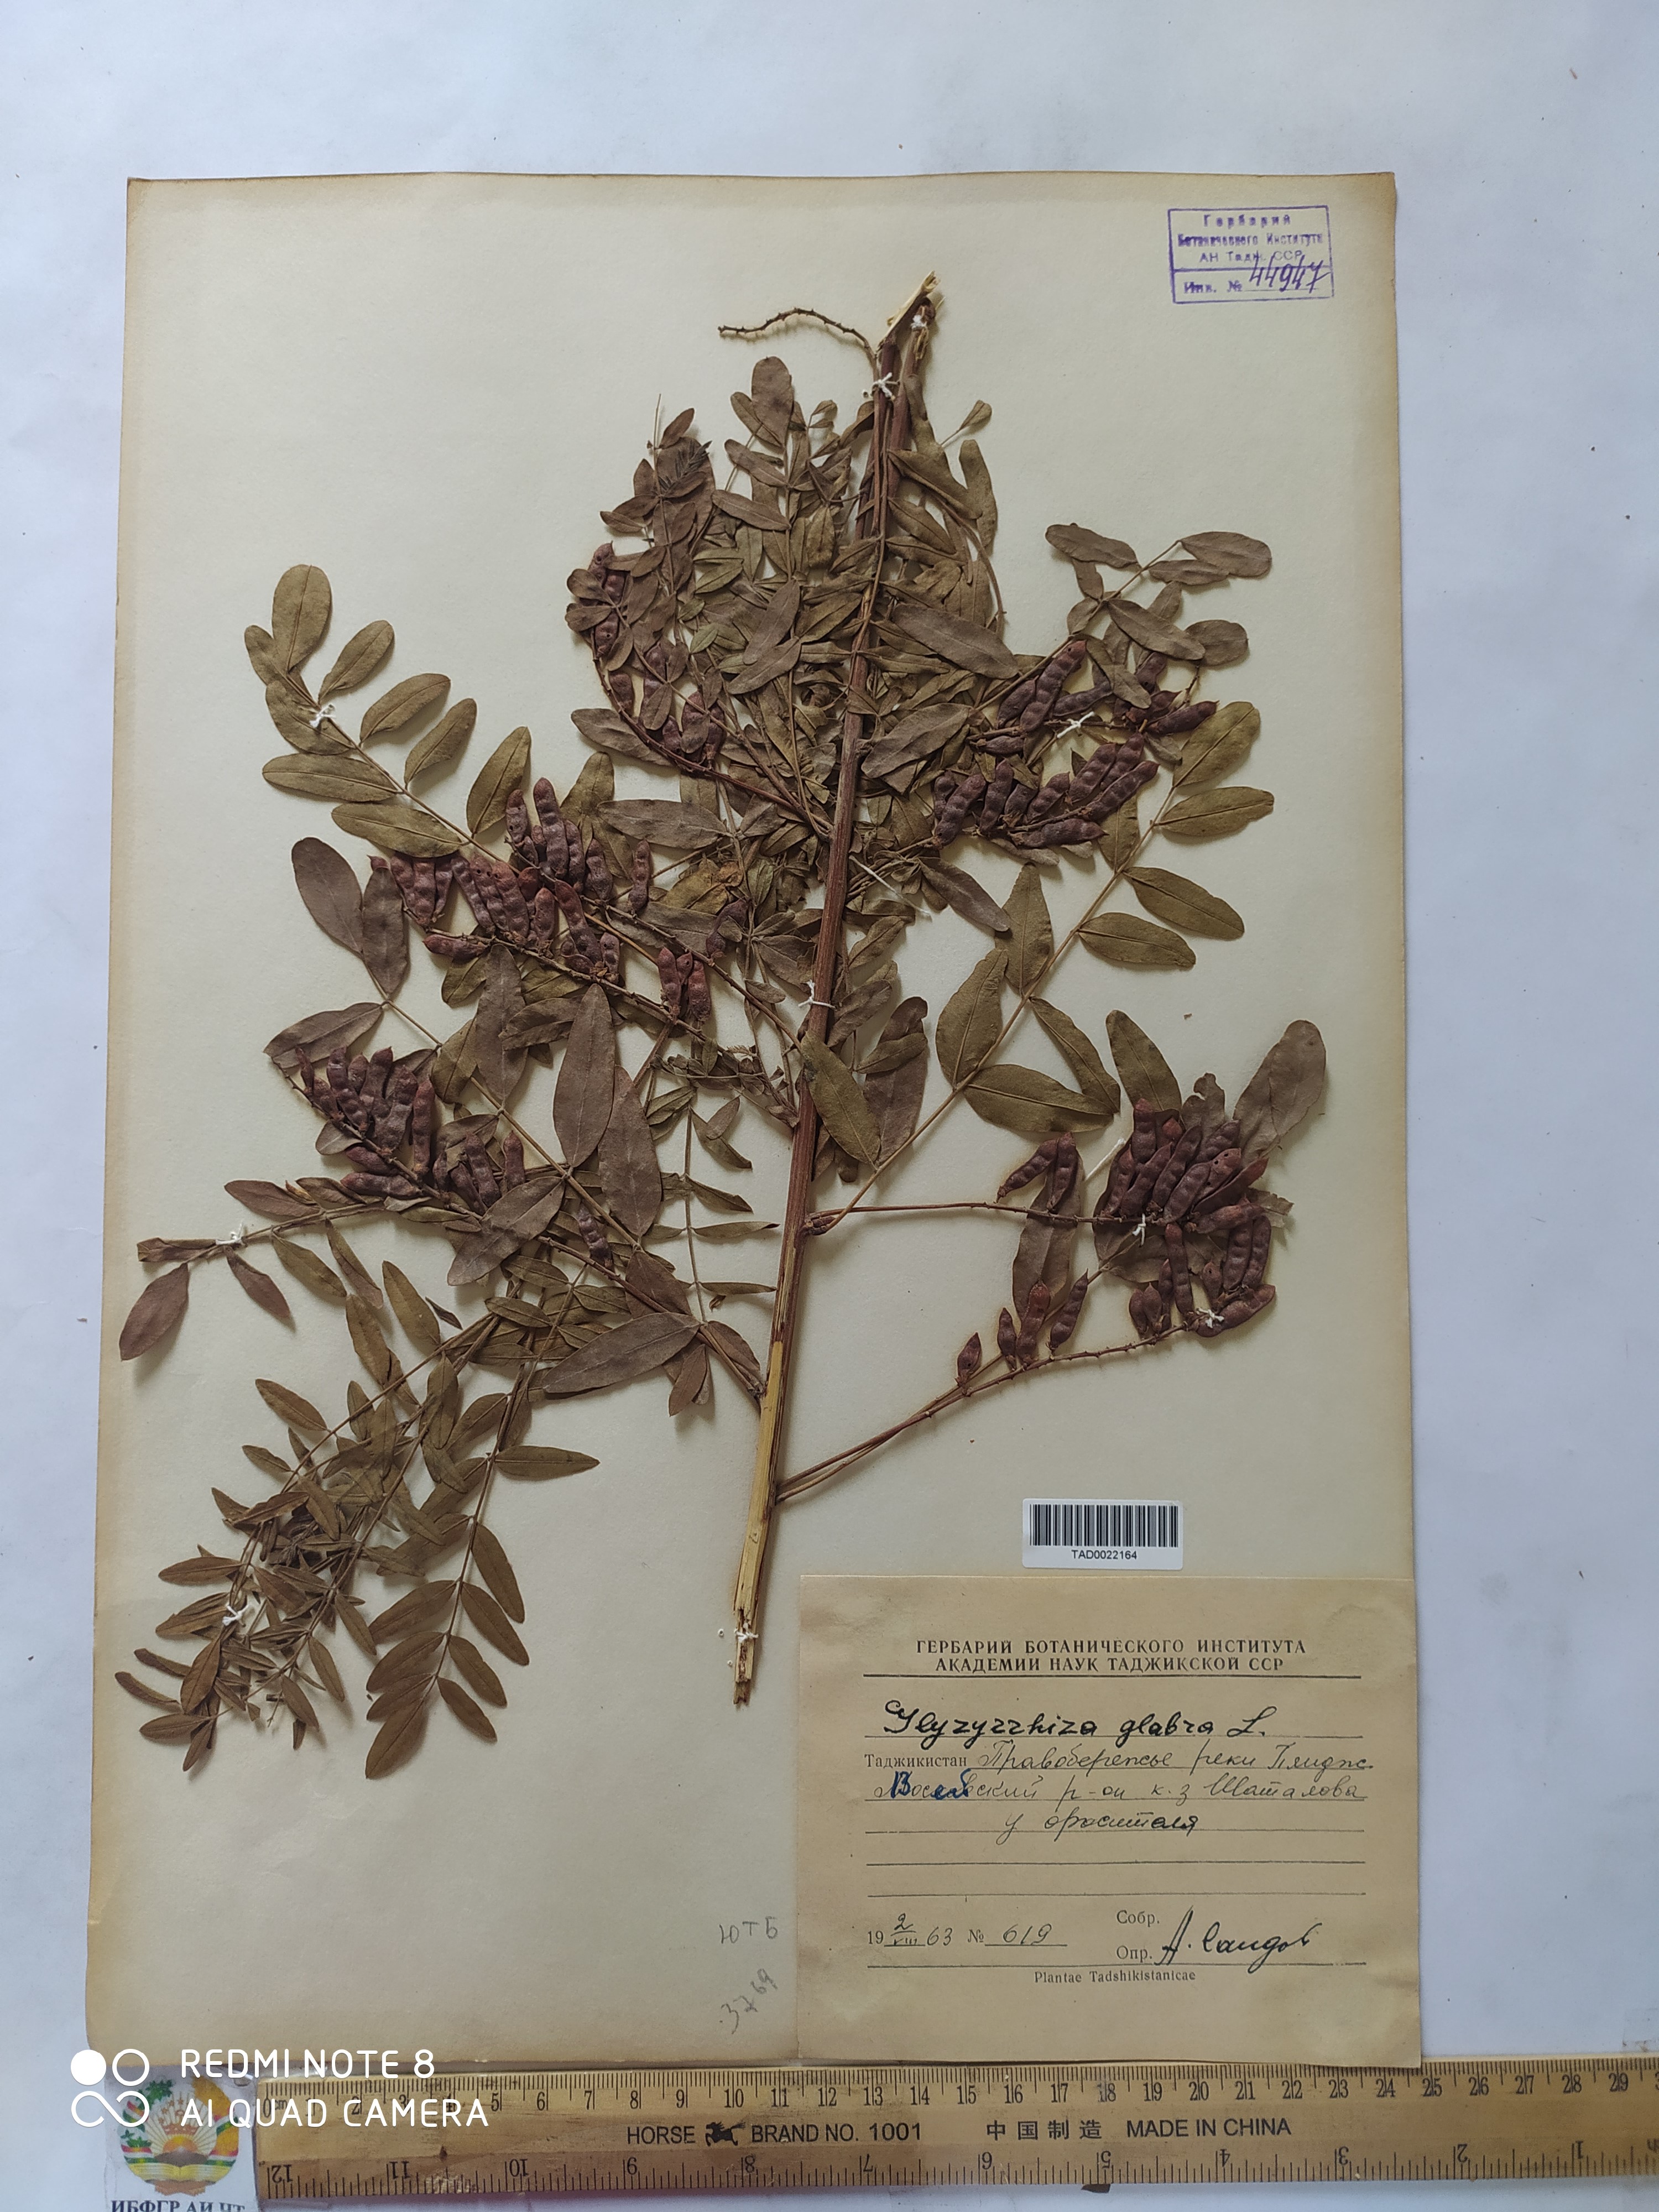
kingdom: Plantae
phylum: Tracheophyta
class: Magnoliopsida
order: Fabales
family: Fabaceae
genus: Glycyrrhiza
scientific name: Glycyrrhiza glabra
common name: Liquorice
